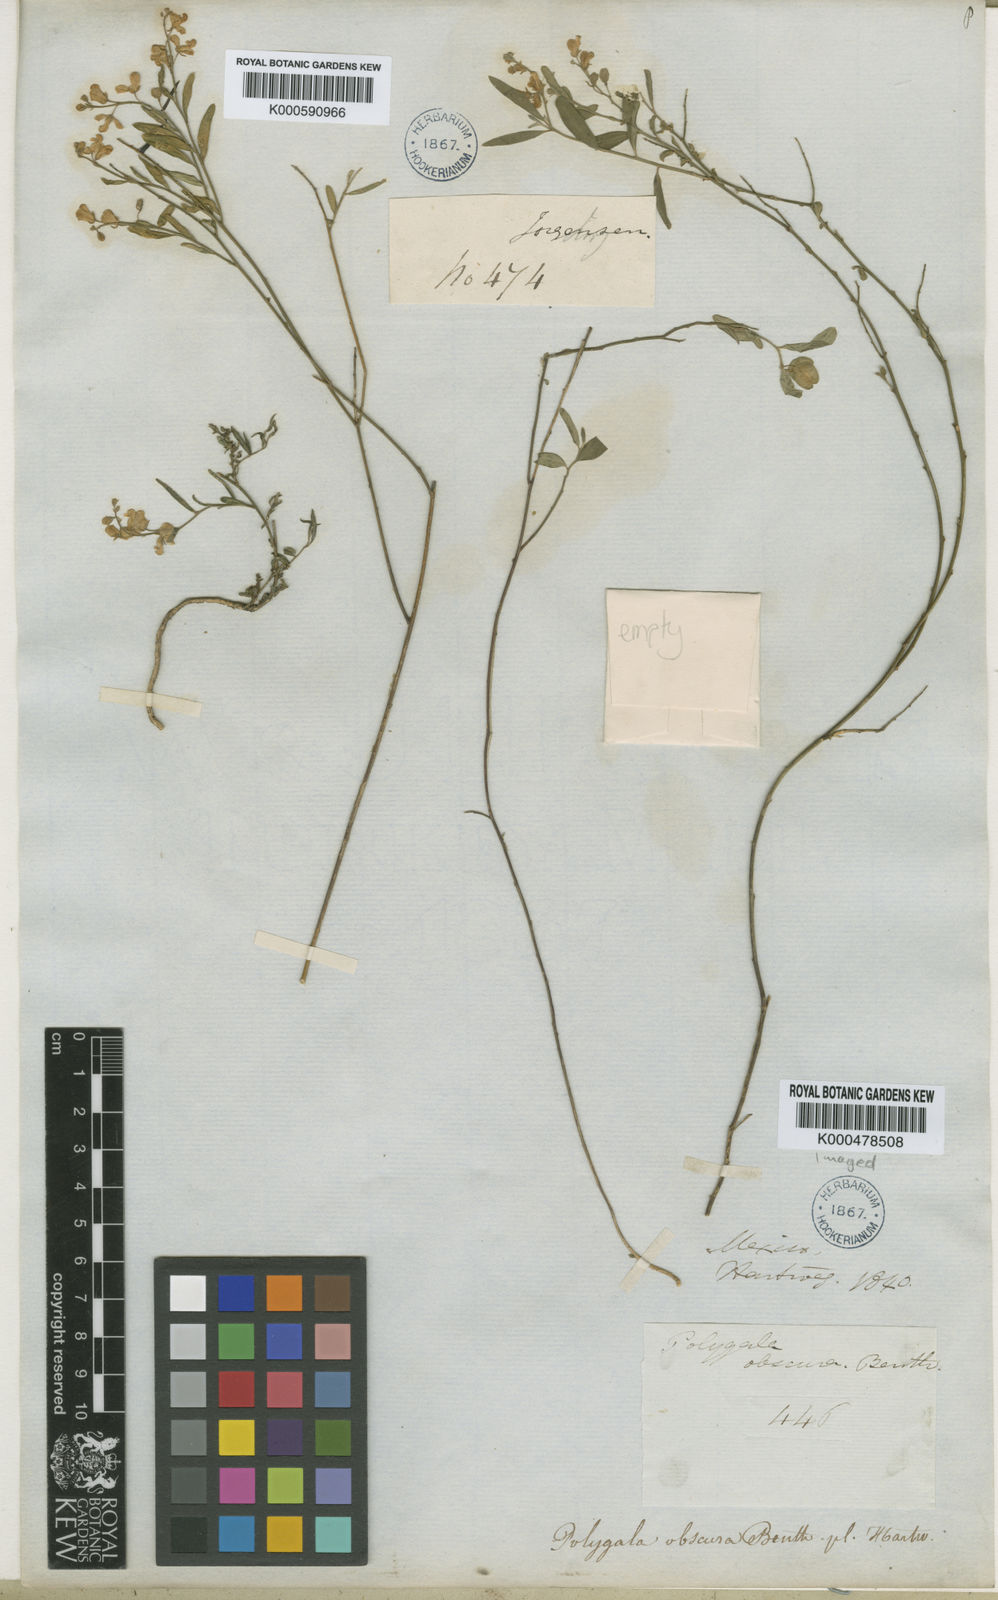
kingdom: Plantae
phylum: Tracheophyta
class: Magnoliopsida
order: Fabales
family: Polygalaceae
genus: Hebecarpa
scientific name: Hebecarpa obscura
